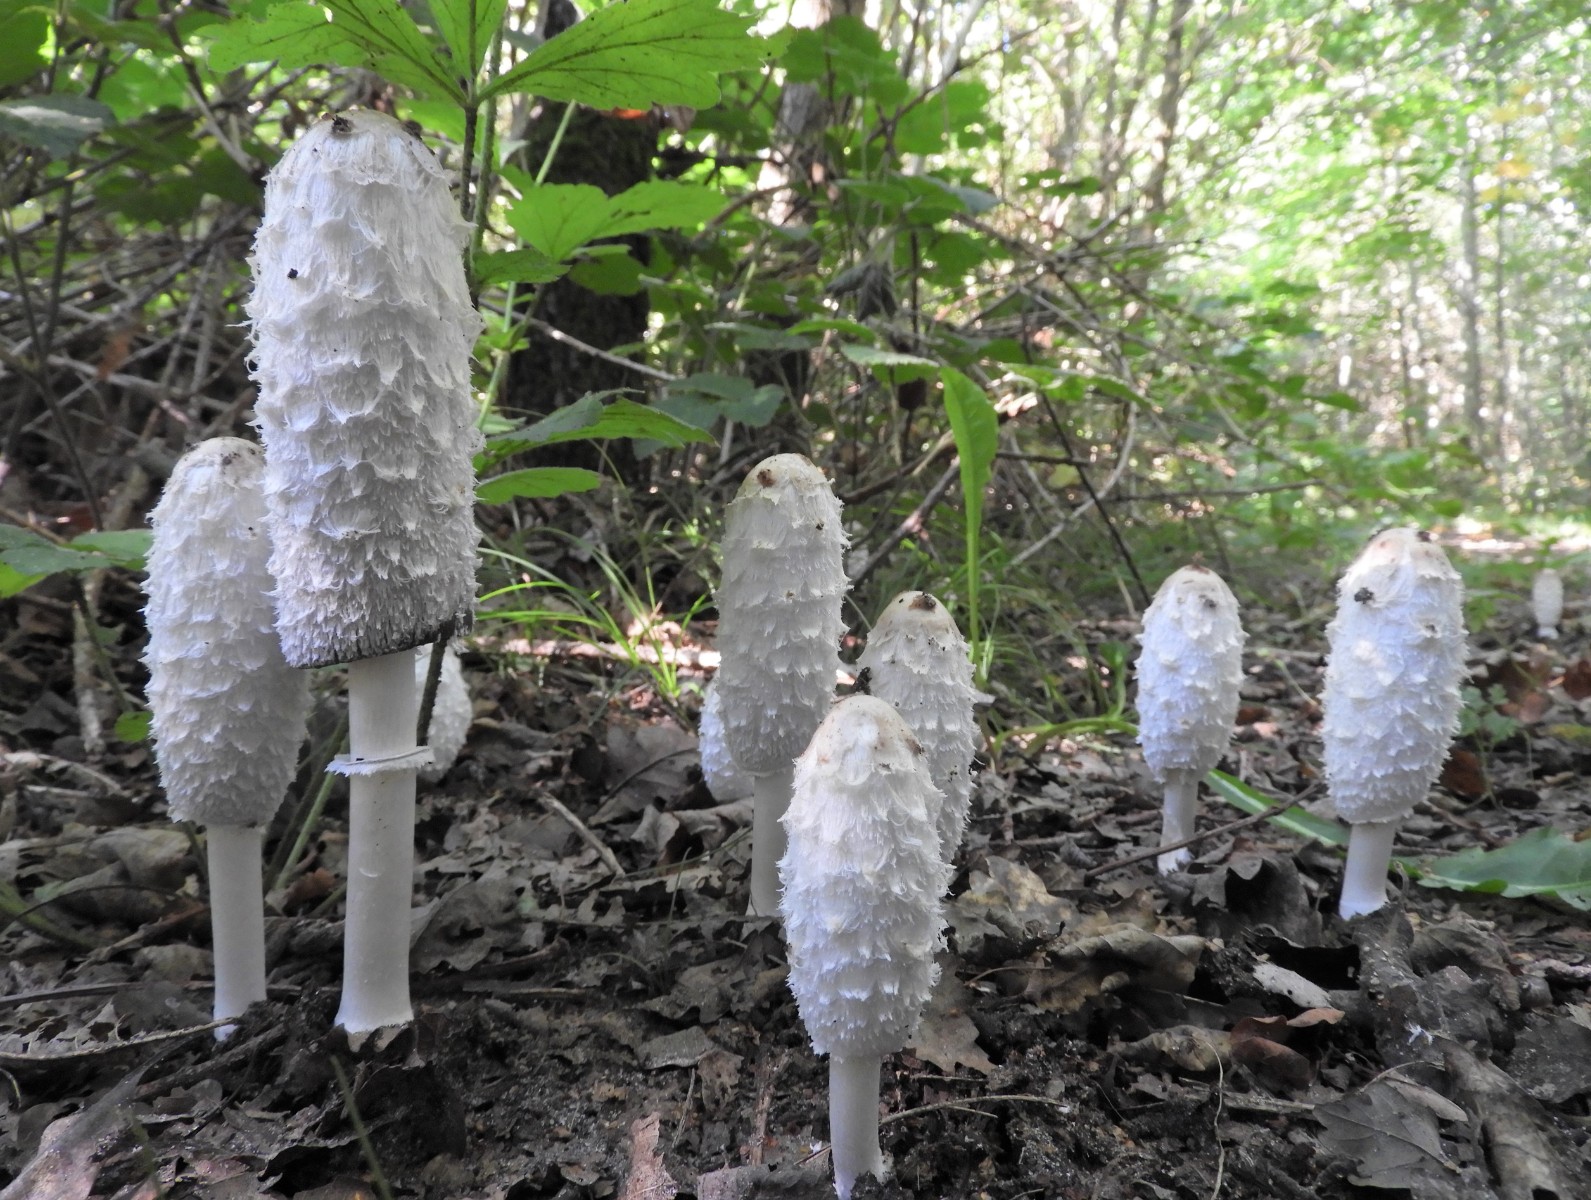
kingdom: Fungi
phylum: Basidiomycota
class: Agaricomycetes
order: Agaricales
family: Agaricaceae
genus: Coprinus
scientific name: Coprinus comatus
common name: stor parykhat
